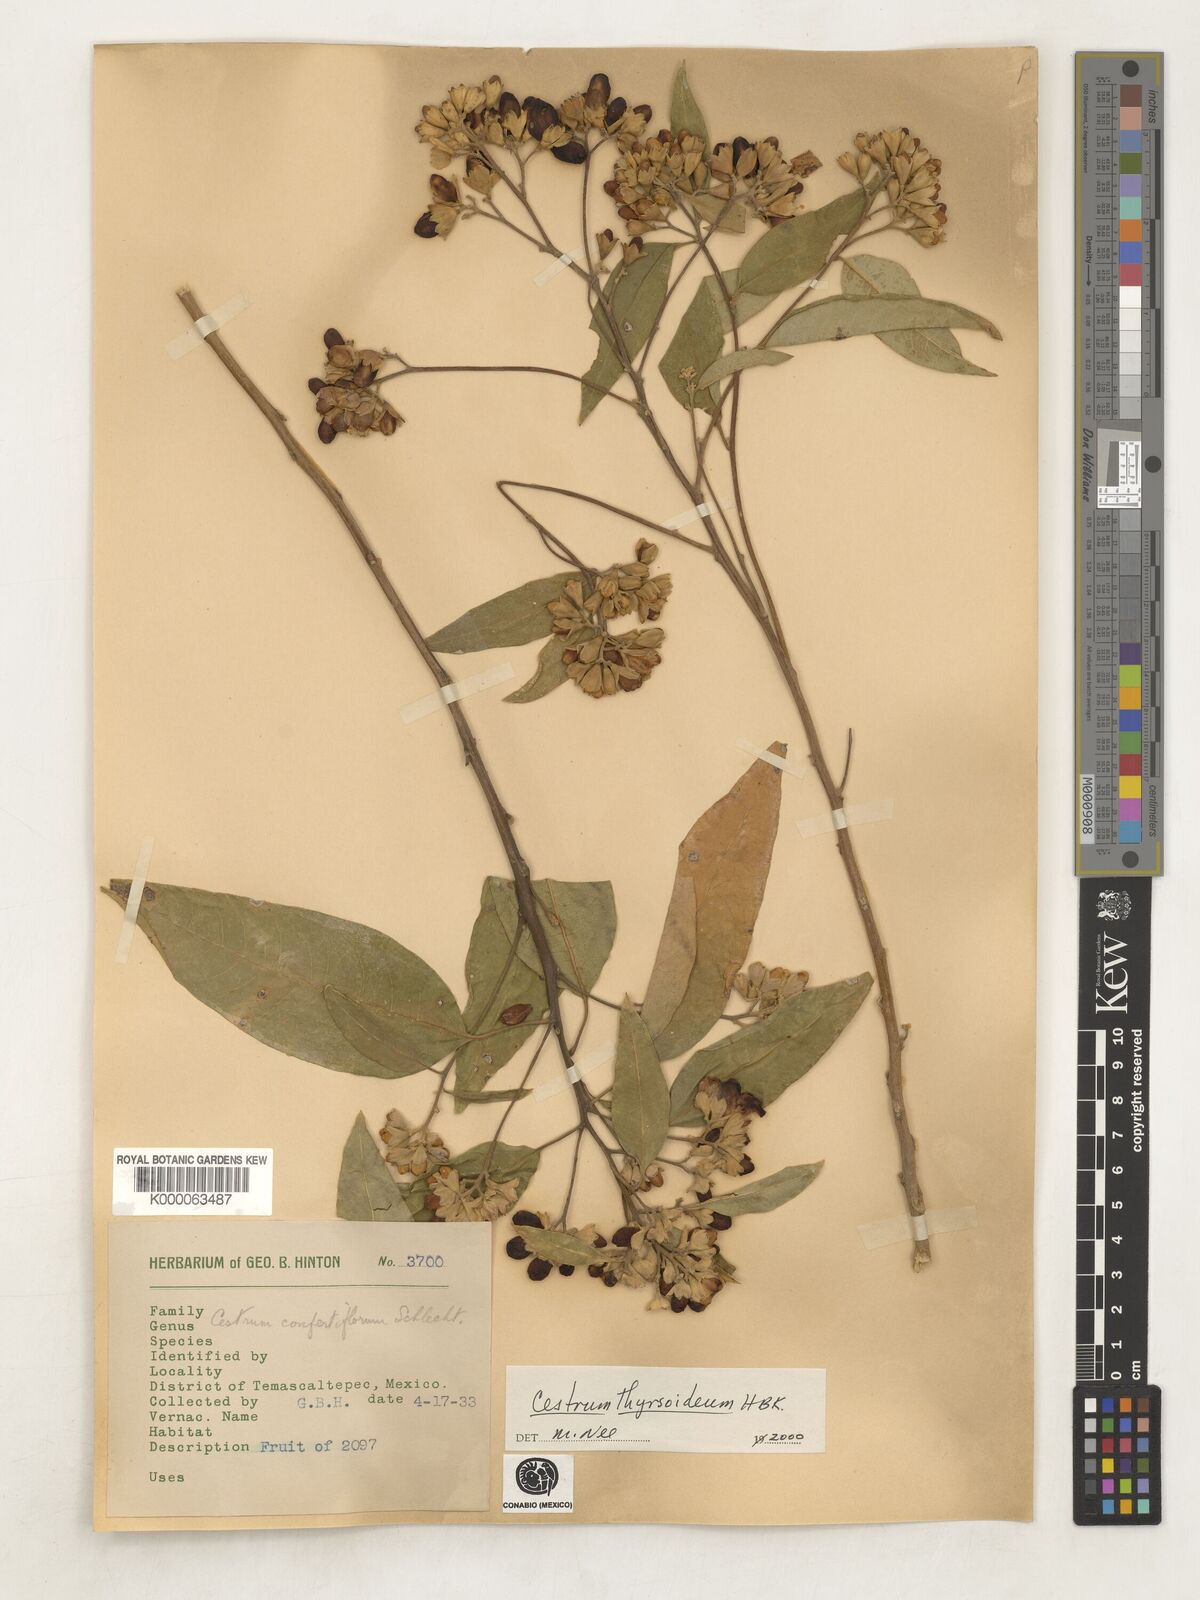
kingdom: Plantae
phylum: Tracheophyta
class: Magnoliopsida
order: Solanales
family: Solanaceae
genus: Cestrum
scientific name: Cestrum
